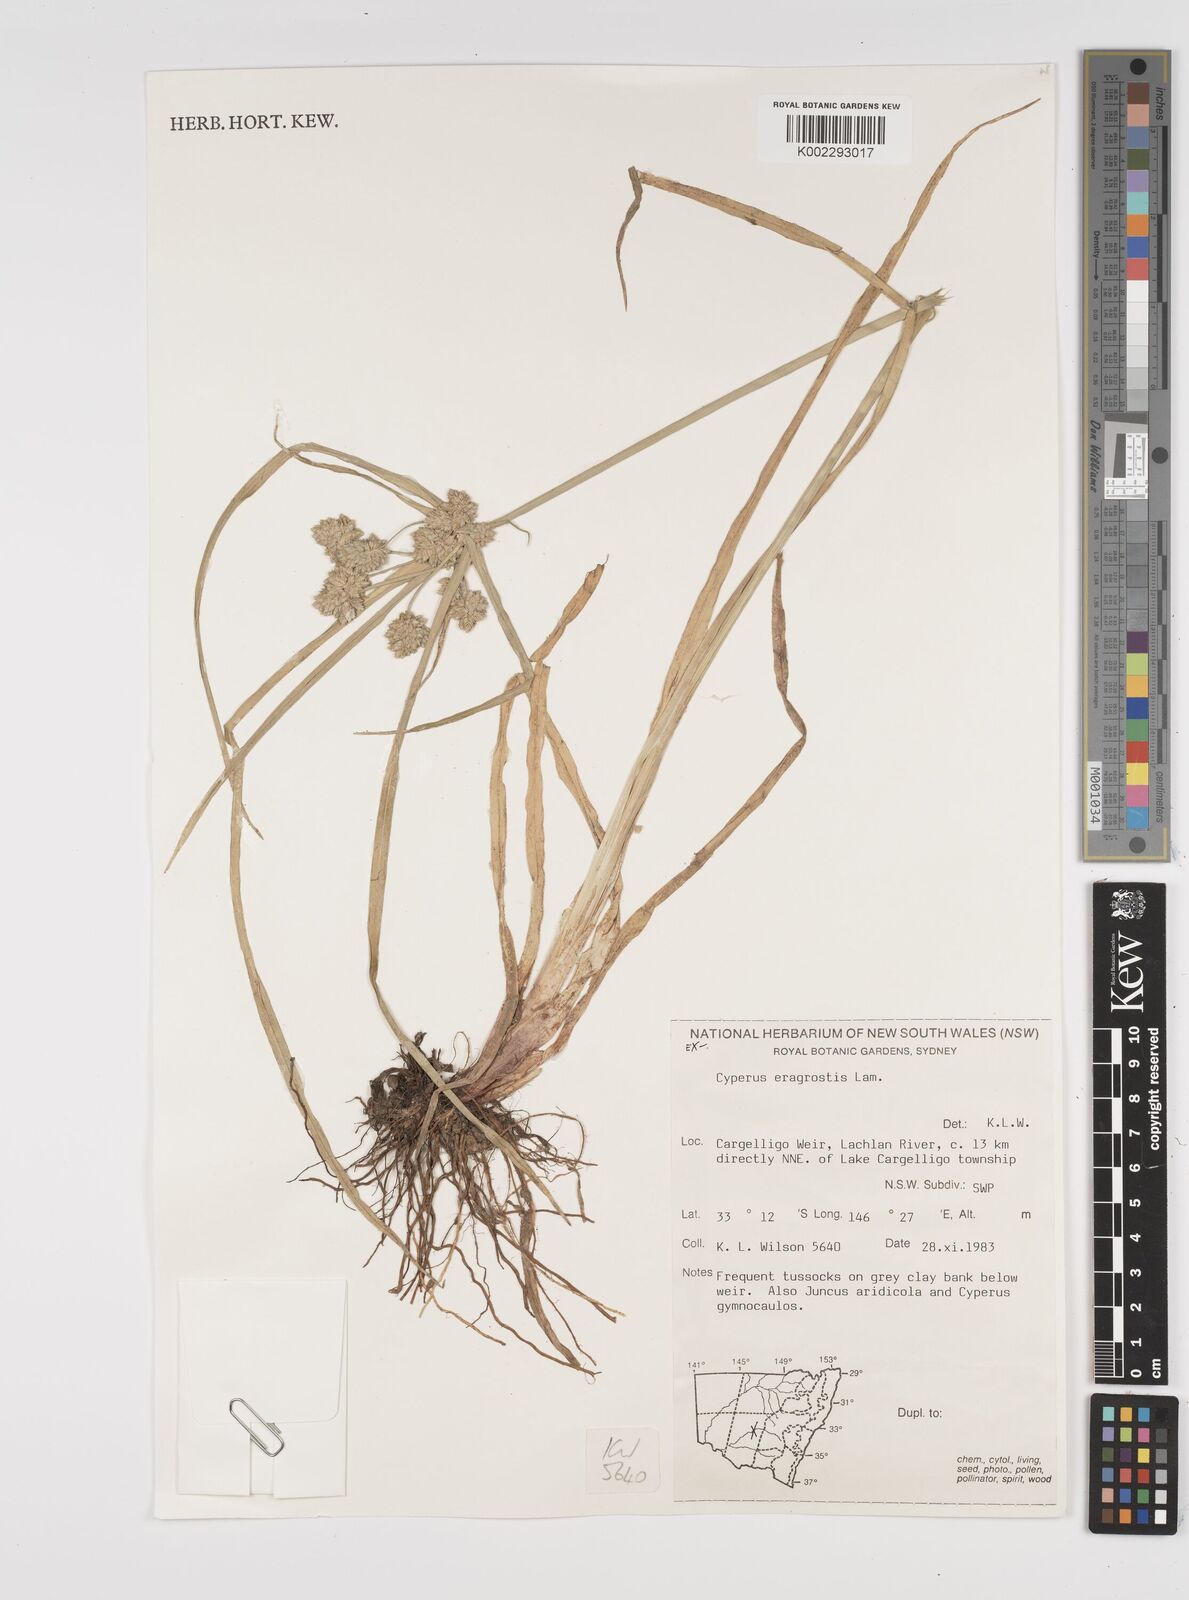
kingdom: Plantae
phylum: Tracheophyta
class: Liliopsida
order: Poales
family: Cyperaceae
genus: Cyperus
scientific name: Cyperus eragrostis
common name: Tall flatsedge
